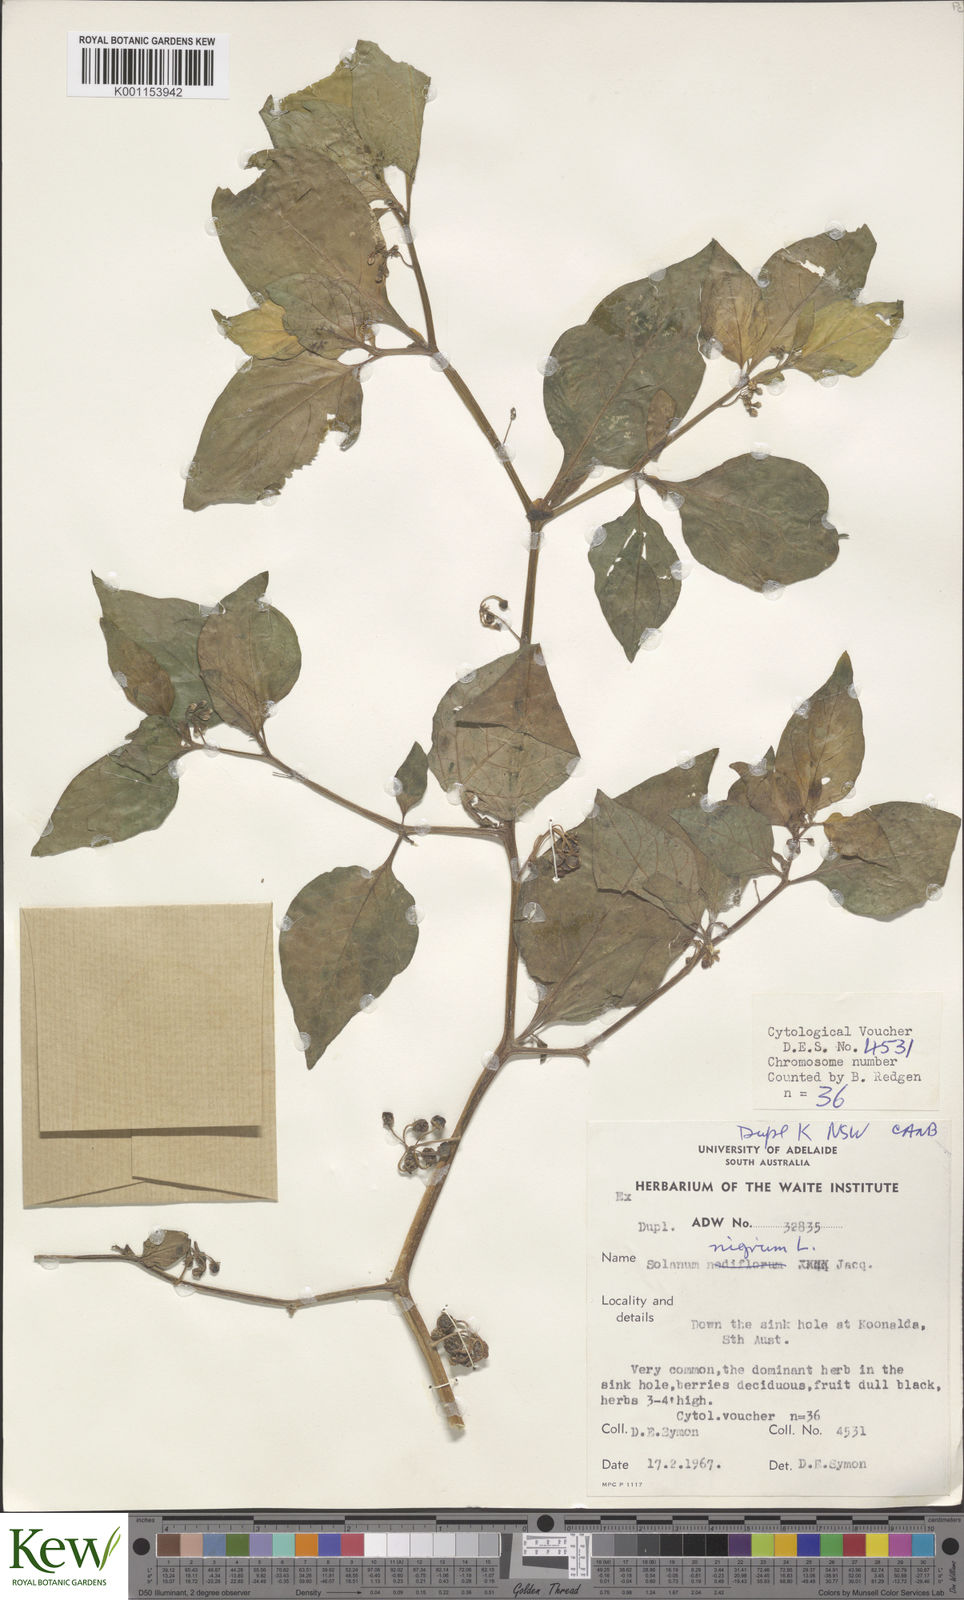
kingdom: Plantae
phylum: Tracheophyta
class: Magnoliopsida
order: Solanales
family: Solanaceae
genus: Solanum
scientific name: Solanum nigrum
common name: Black nightshade
